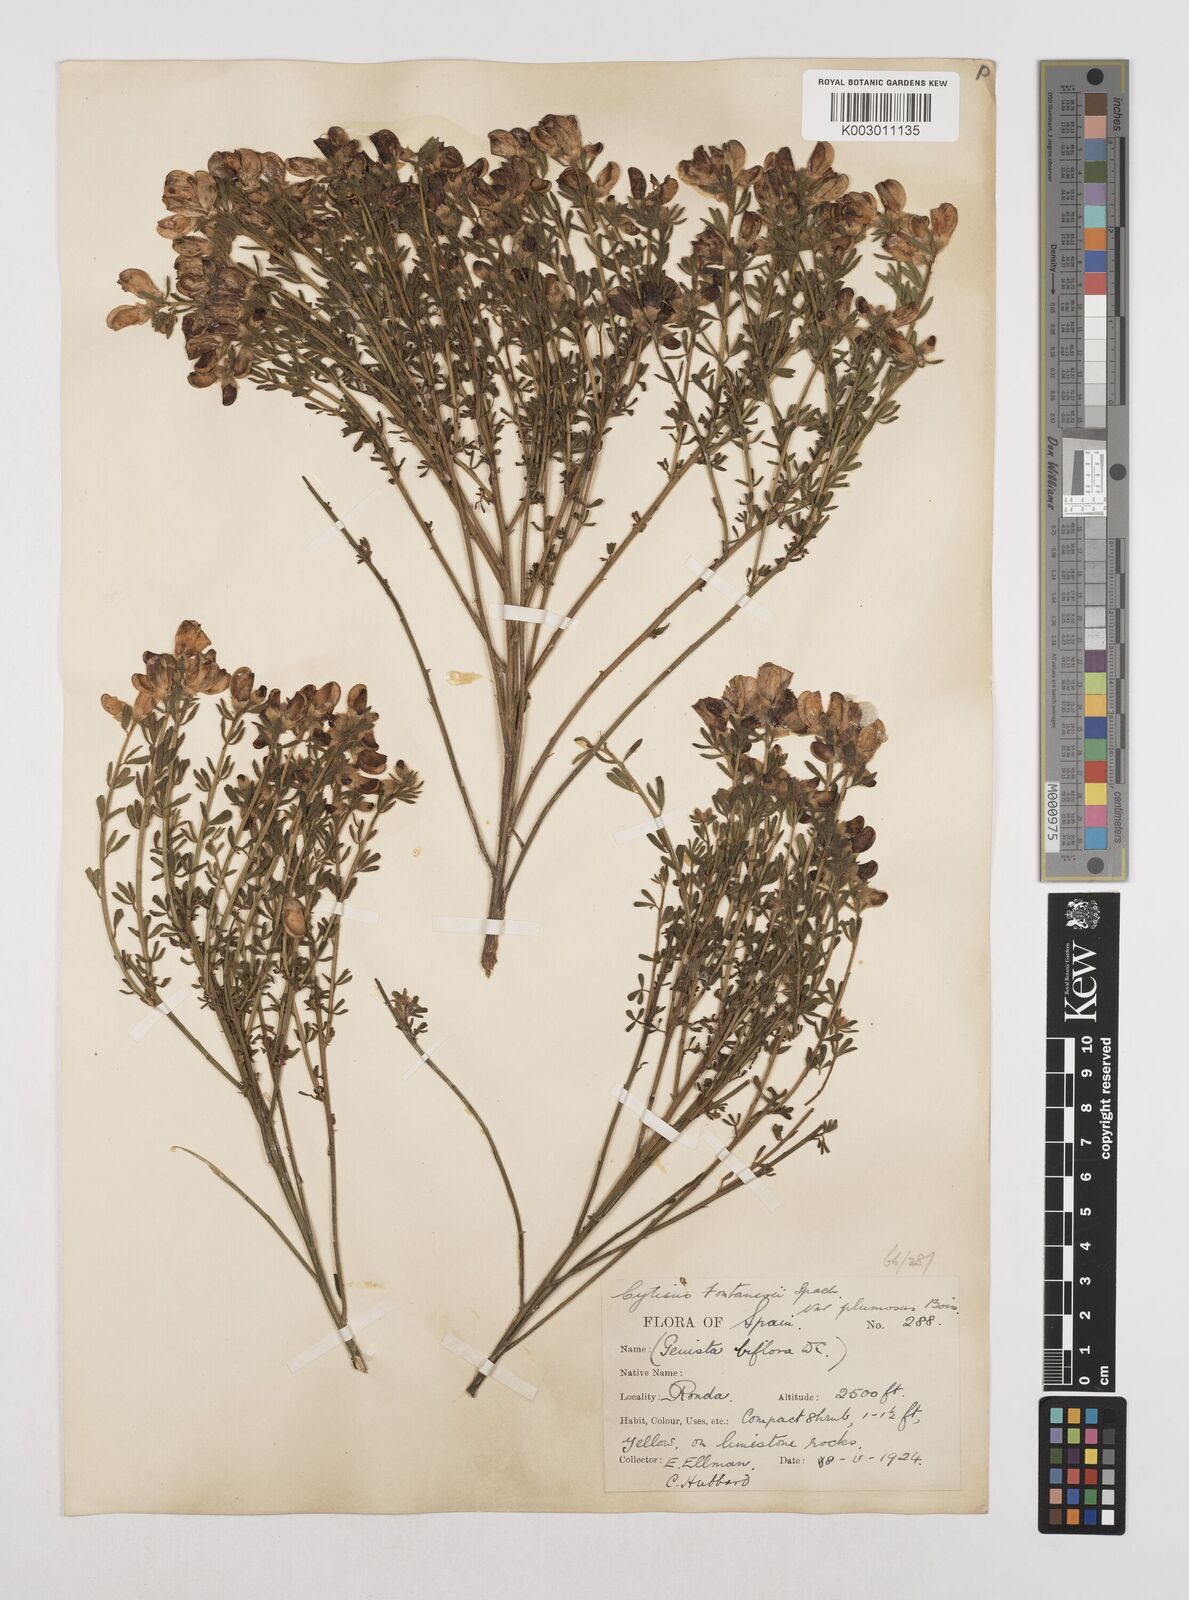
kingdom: Plantae
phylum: Tracheophyta
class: Magnoliopsida
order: Fabales
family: Fabaceae
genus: Cytisus
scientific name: Cytisus fontanesii
